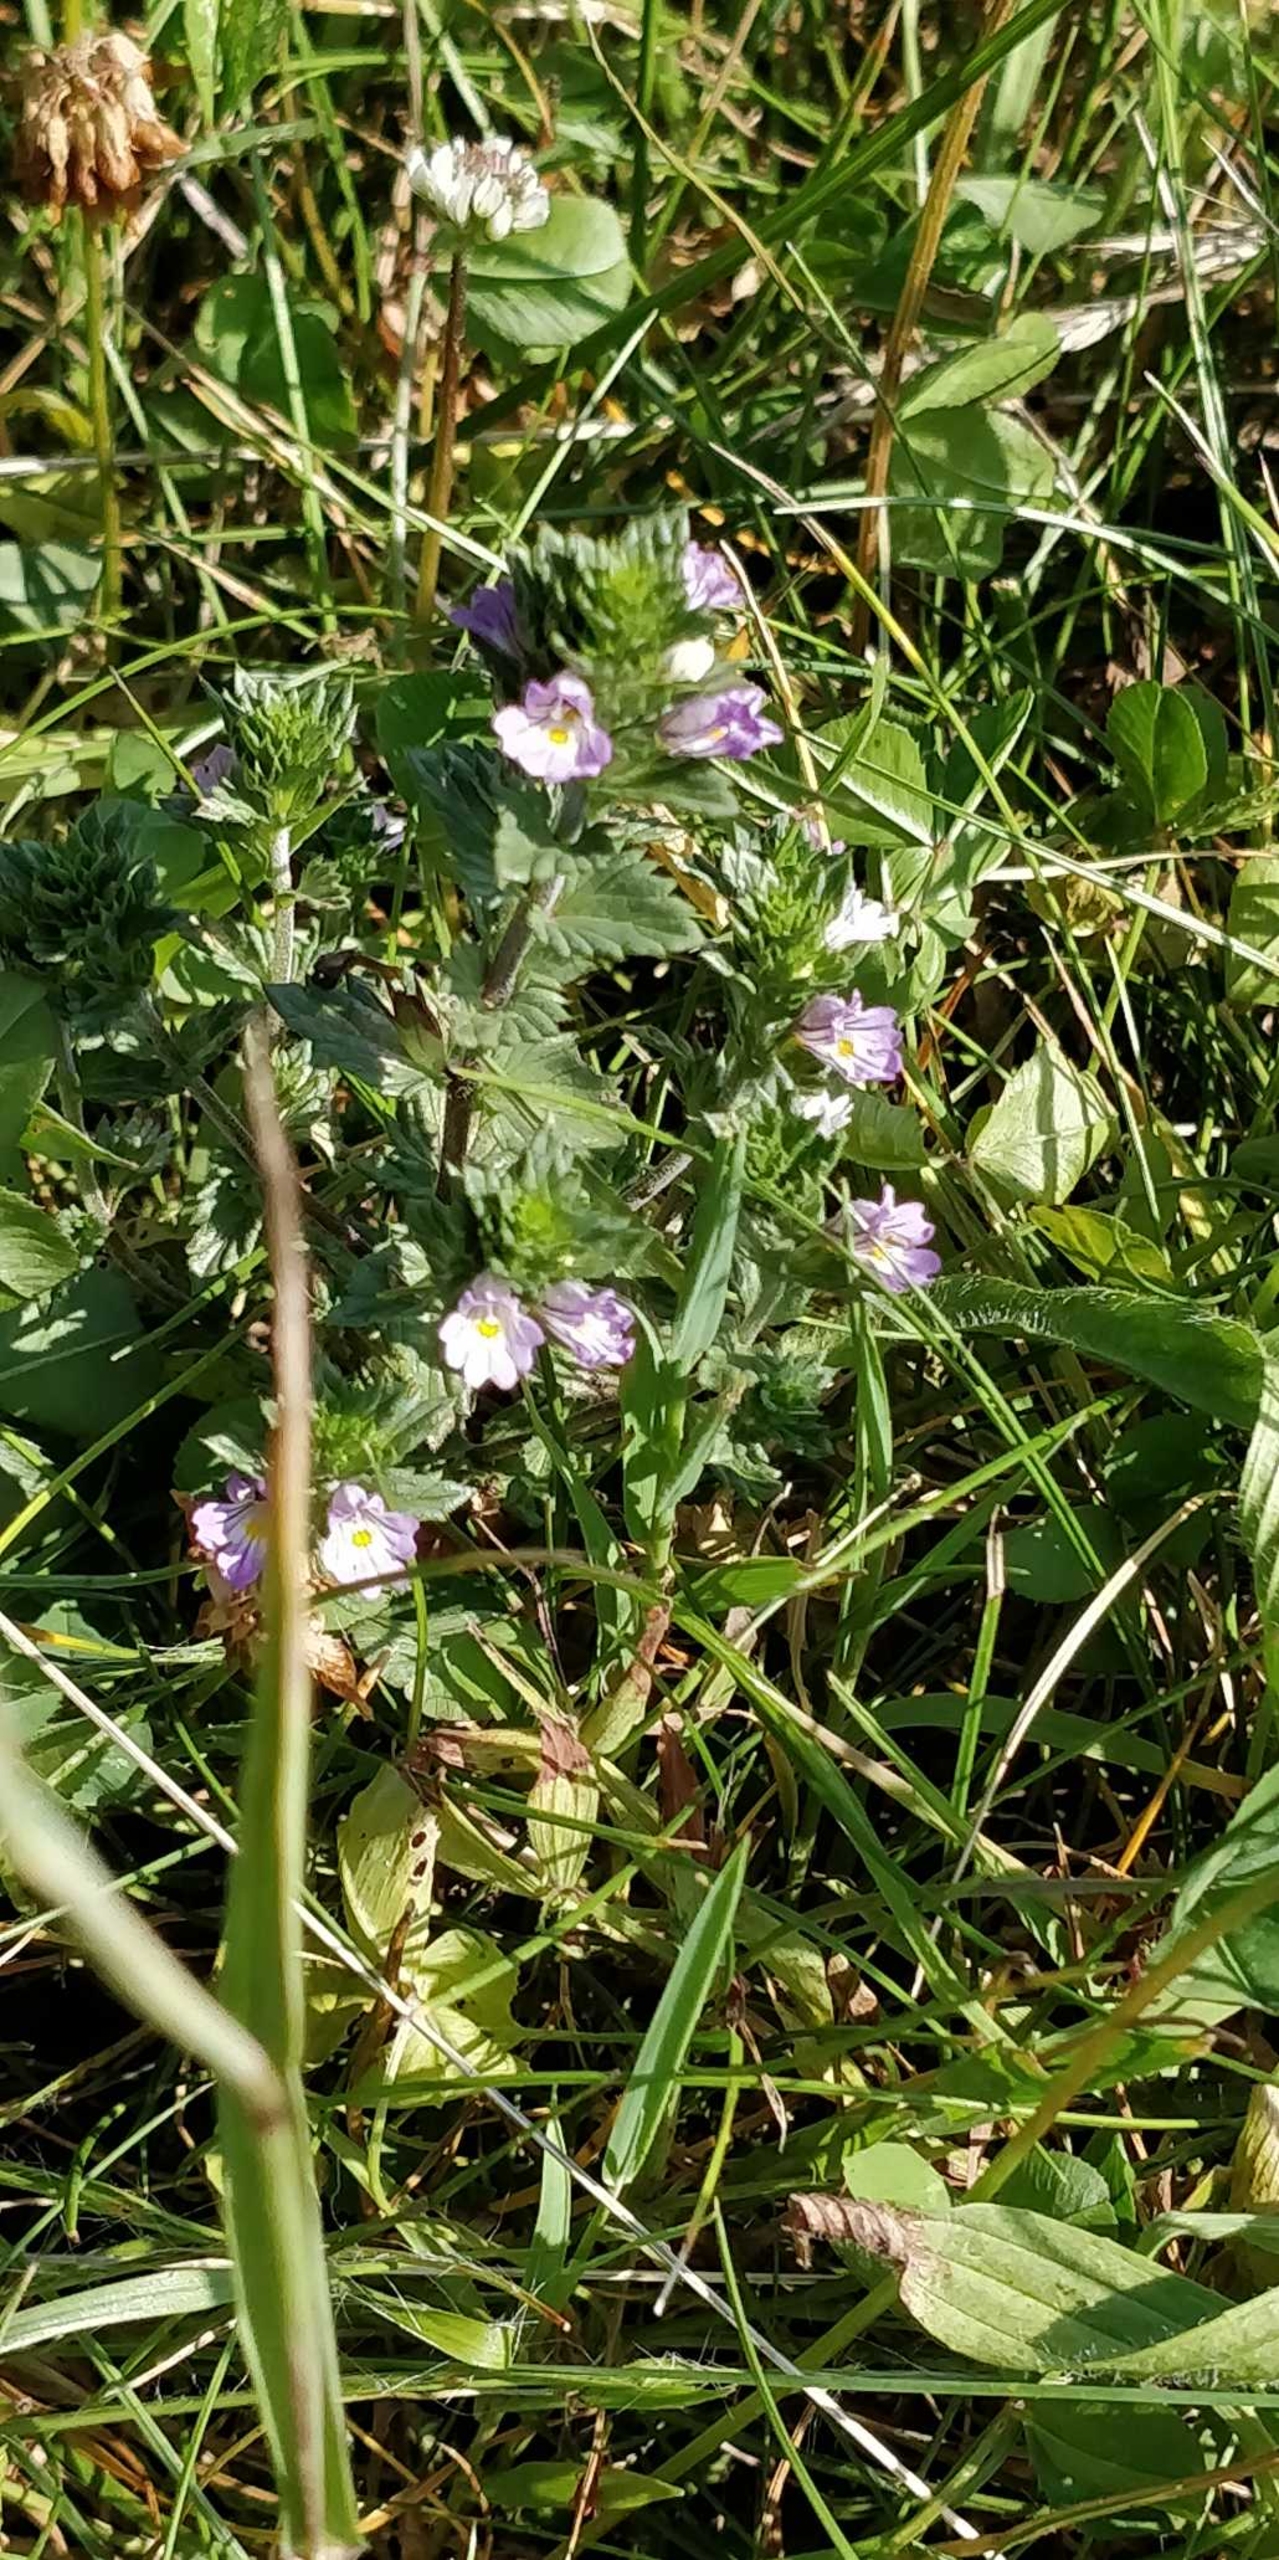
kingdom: Plantae
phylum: Tracheophyta
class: Magnoliopsida
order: Lamiales
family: Orobanchaceae
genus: Euphrasia
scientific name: Euphrasia
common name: Øjentrøstslægten
